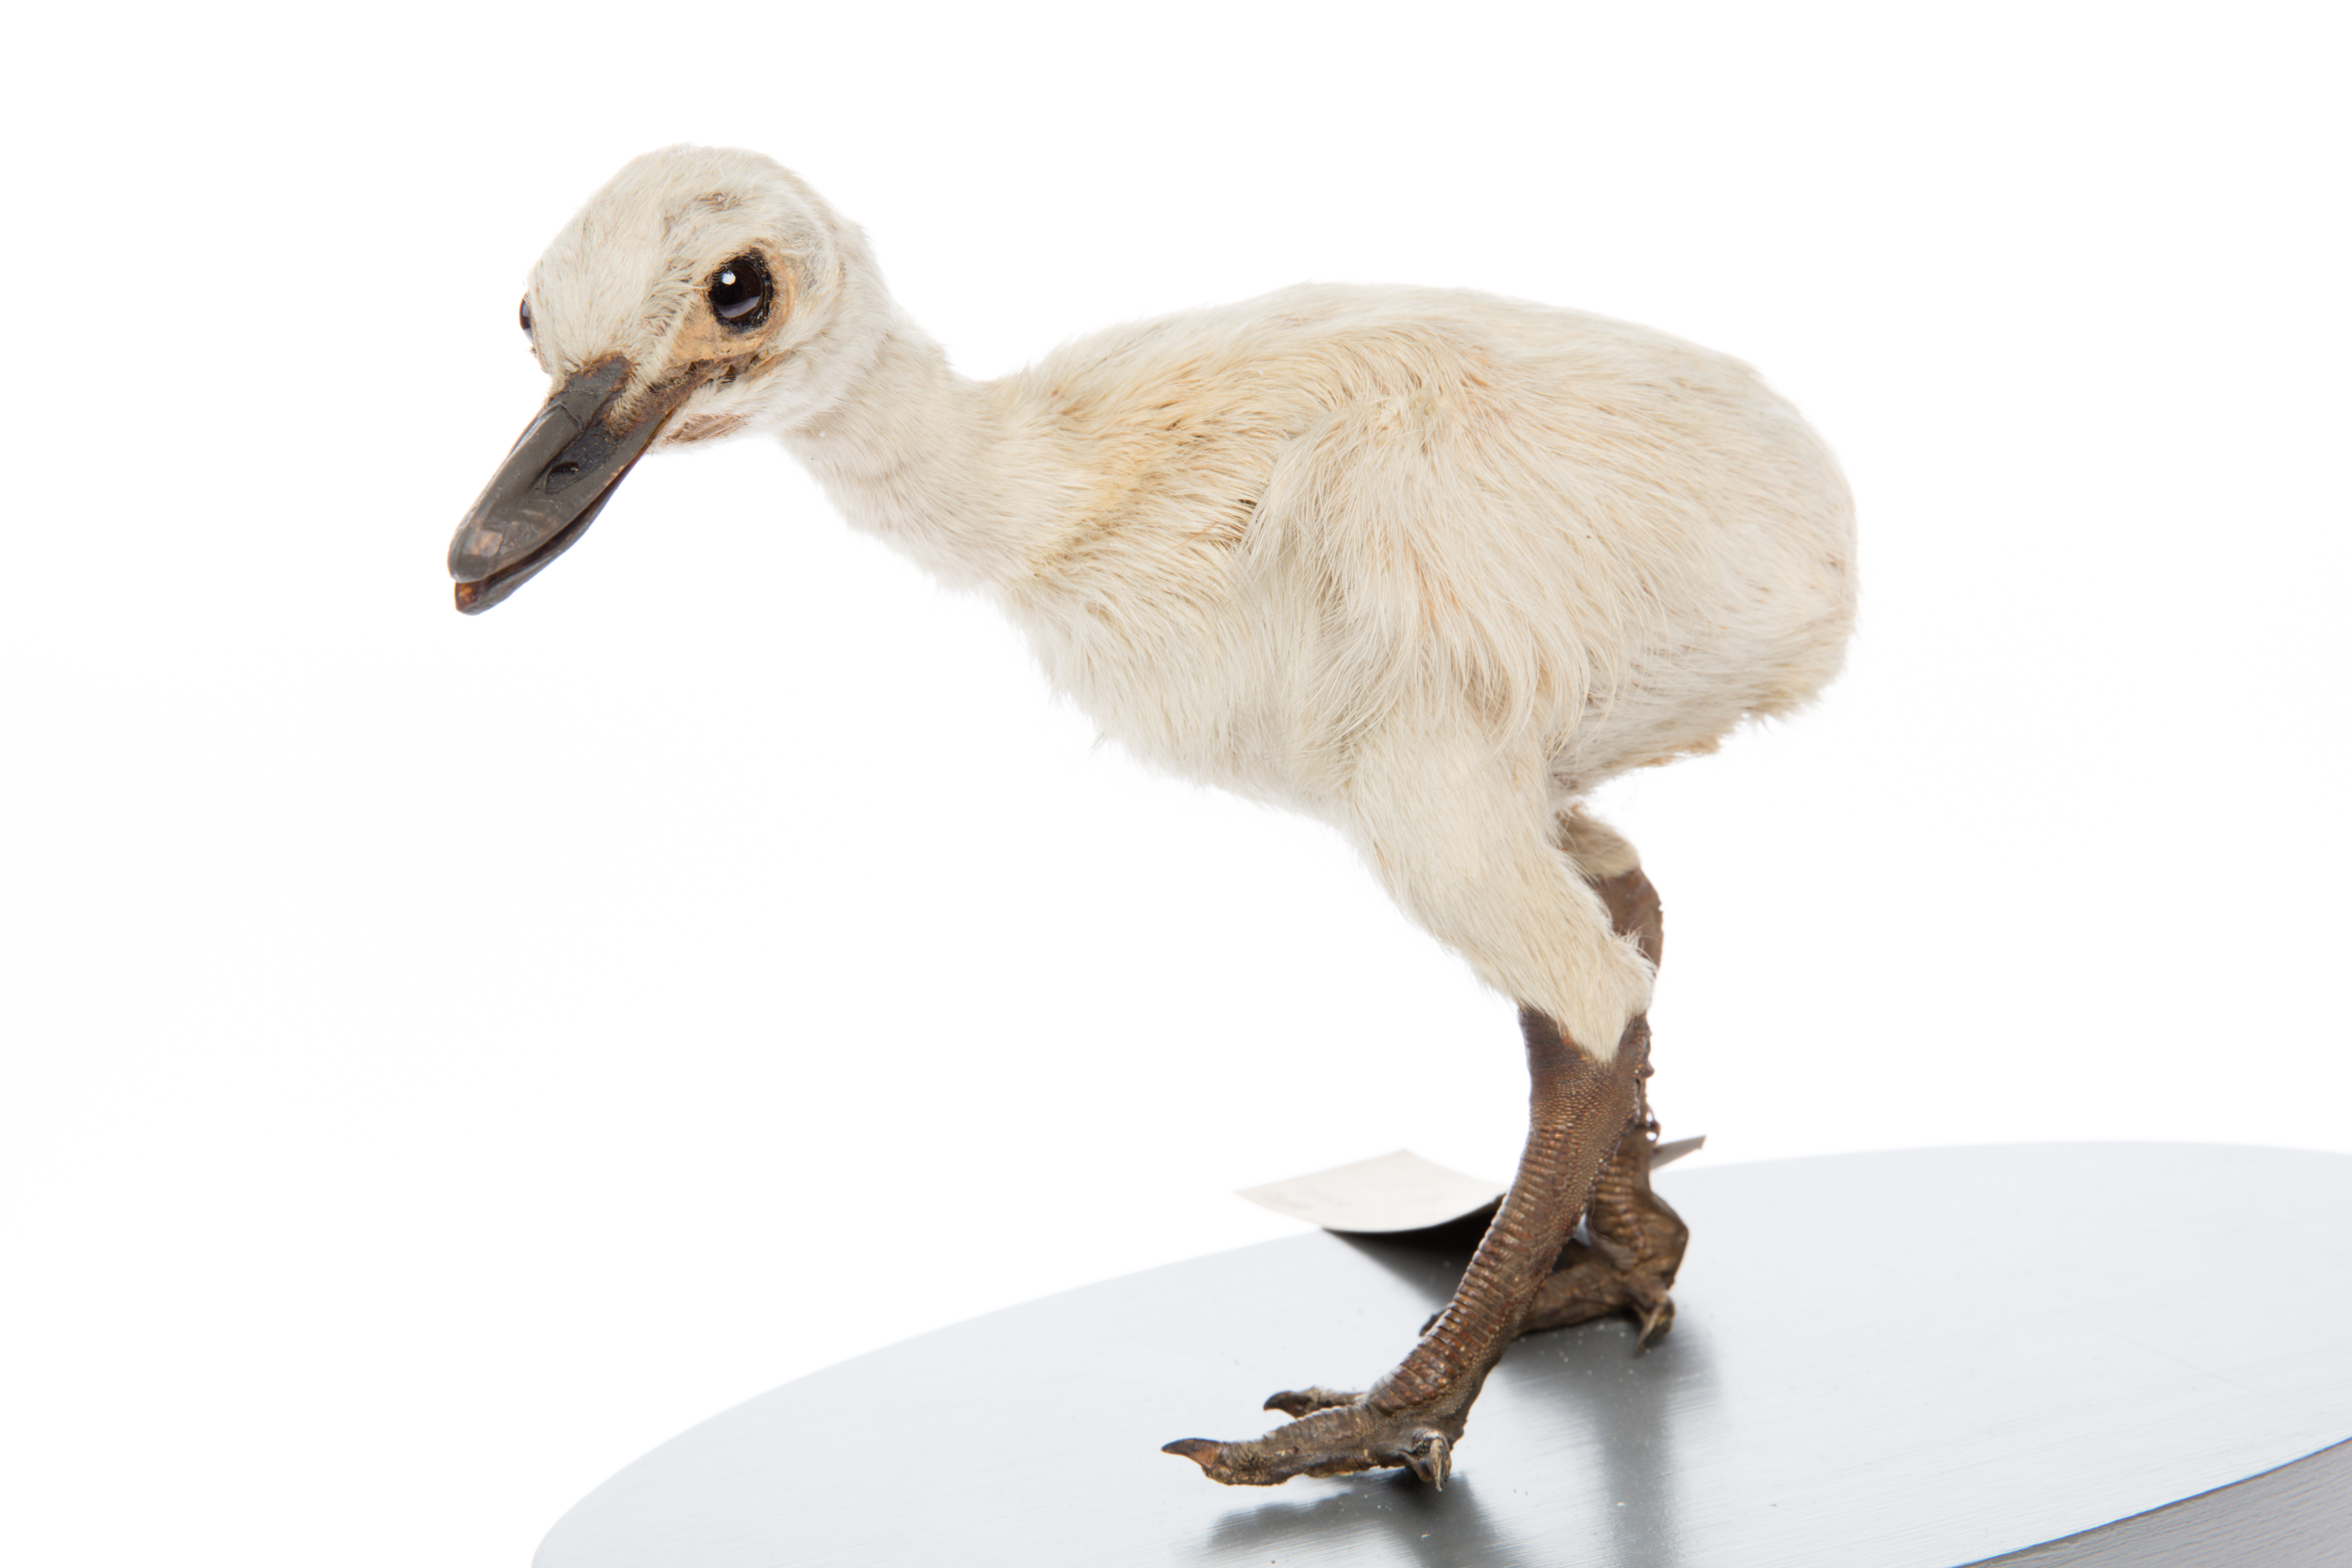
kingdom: Animalia
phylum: Chordata
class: Aves
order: Rheiformes
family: Rheidae
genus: Rhea
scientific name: Rhea americana
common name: Greater rhea
